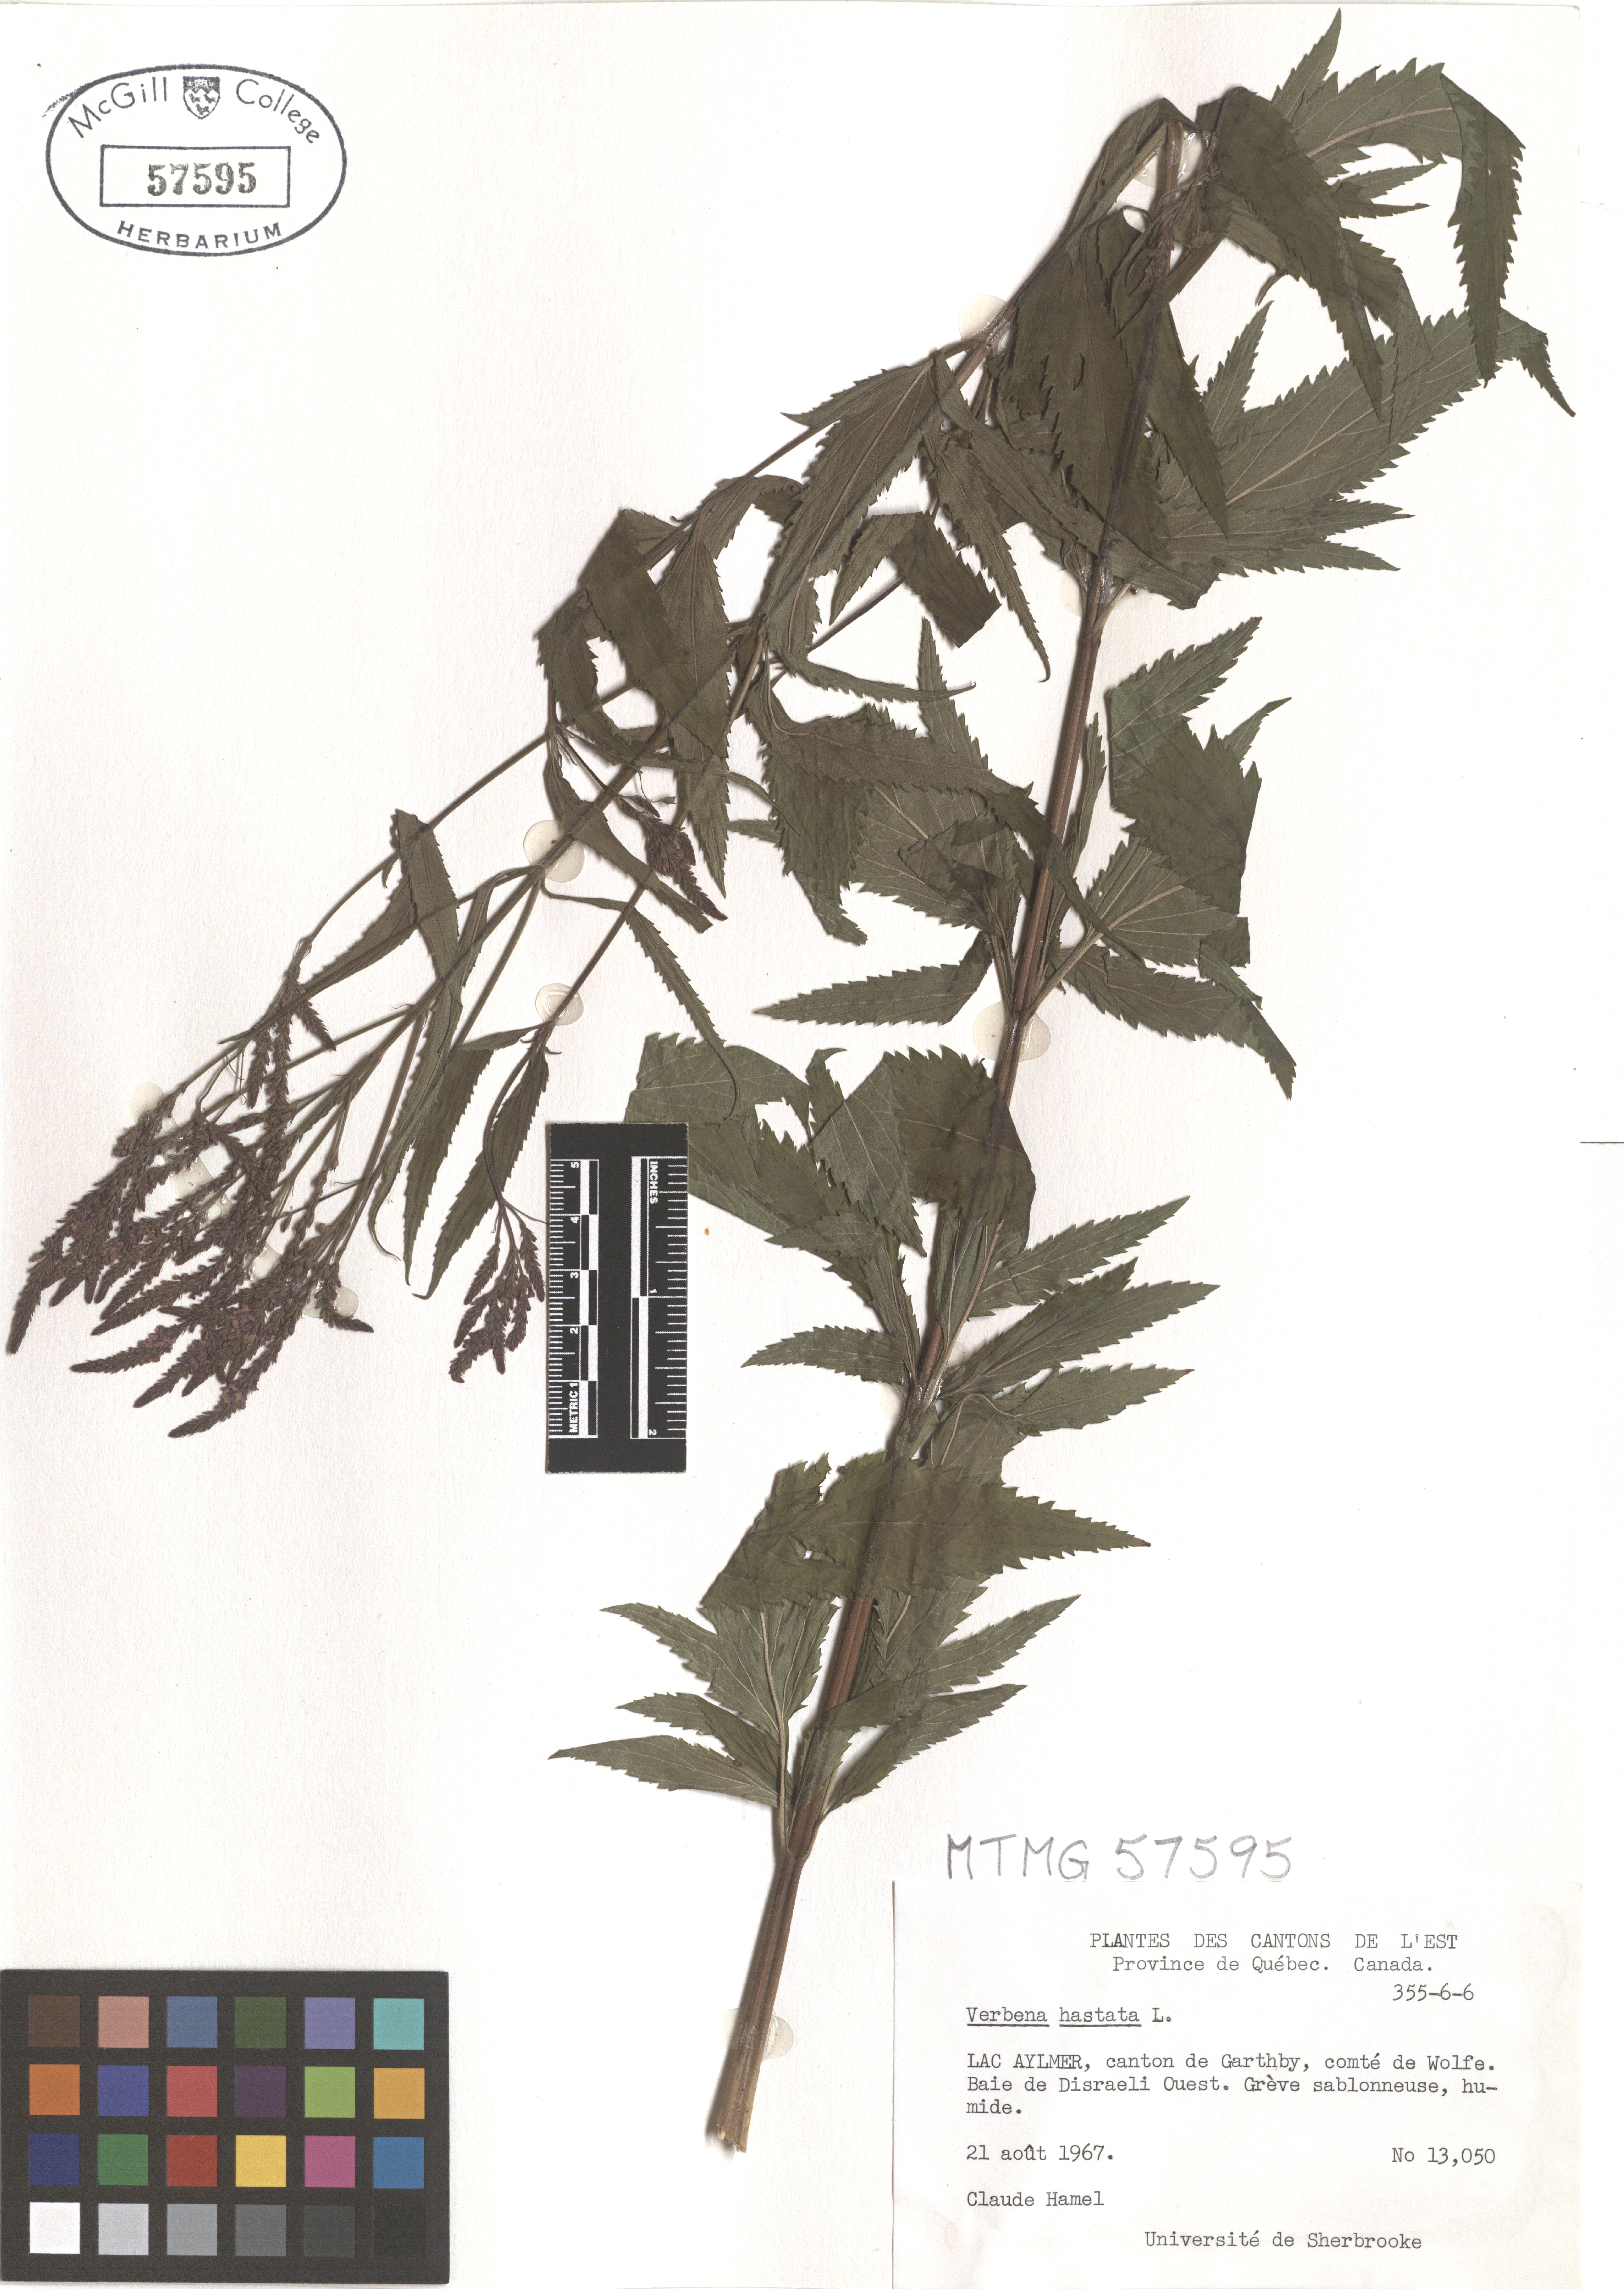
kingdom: Plantae
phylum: Tracheophyta
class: Magnoliopsida
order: Lamiales
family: Verbenaceae
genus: Verbena
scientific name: Verbena hastata
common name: American blue vervain
